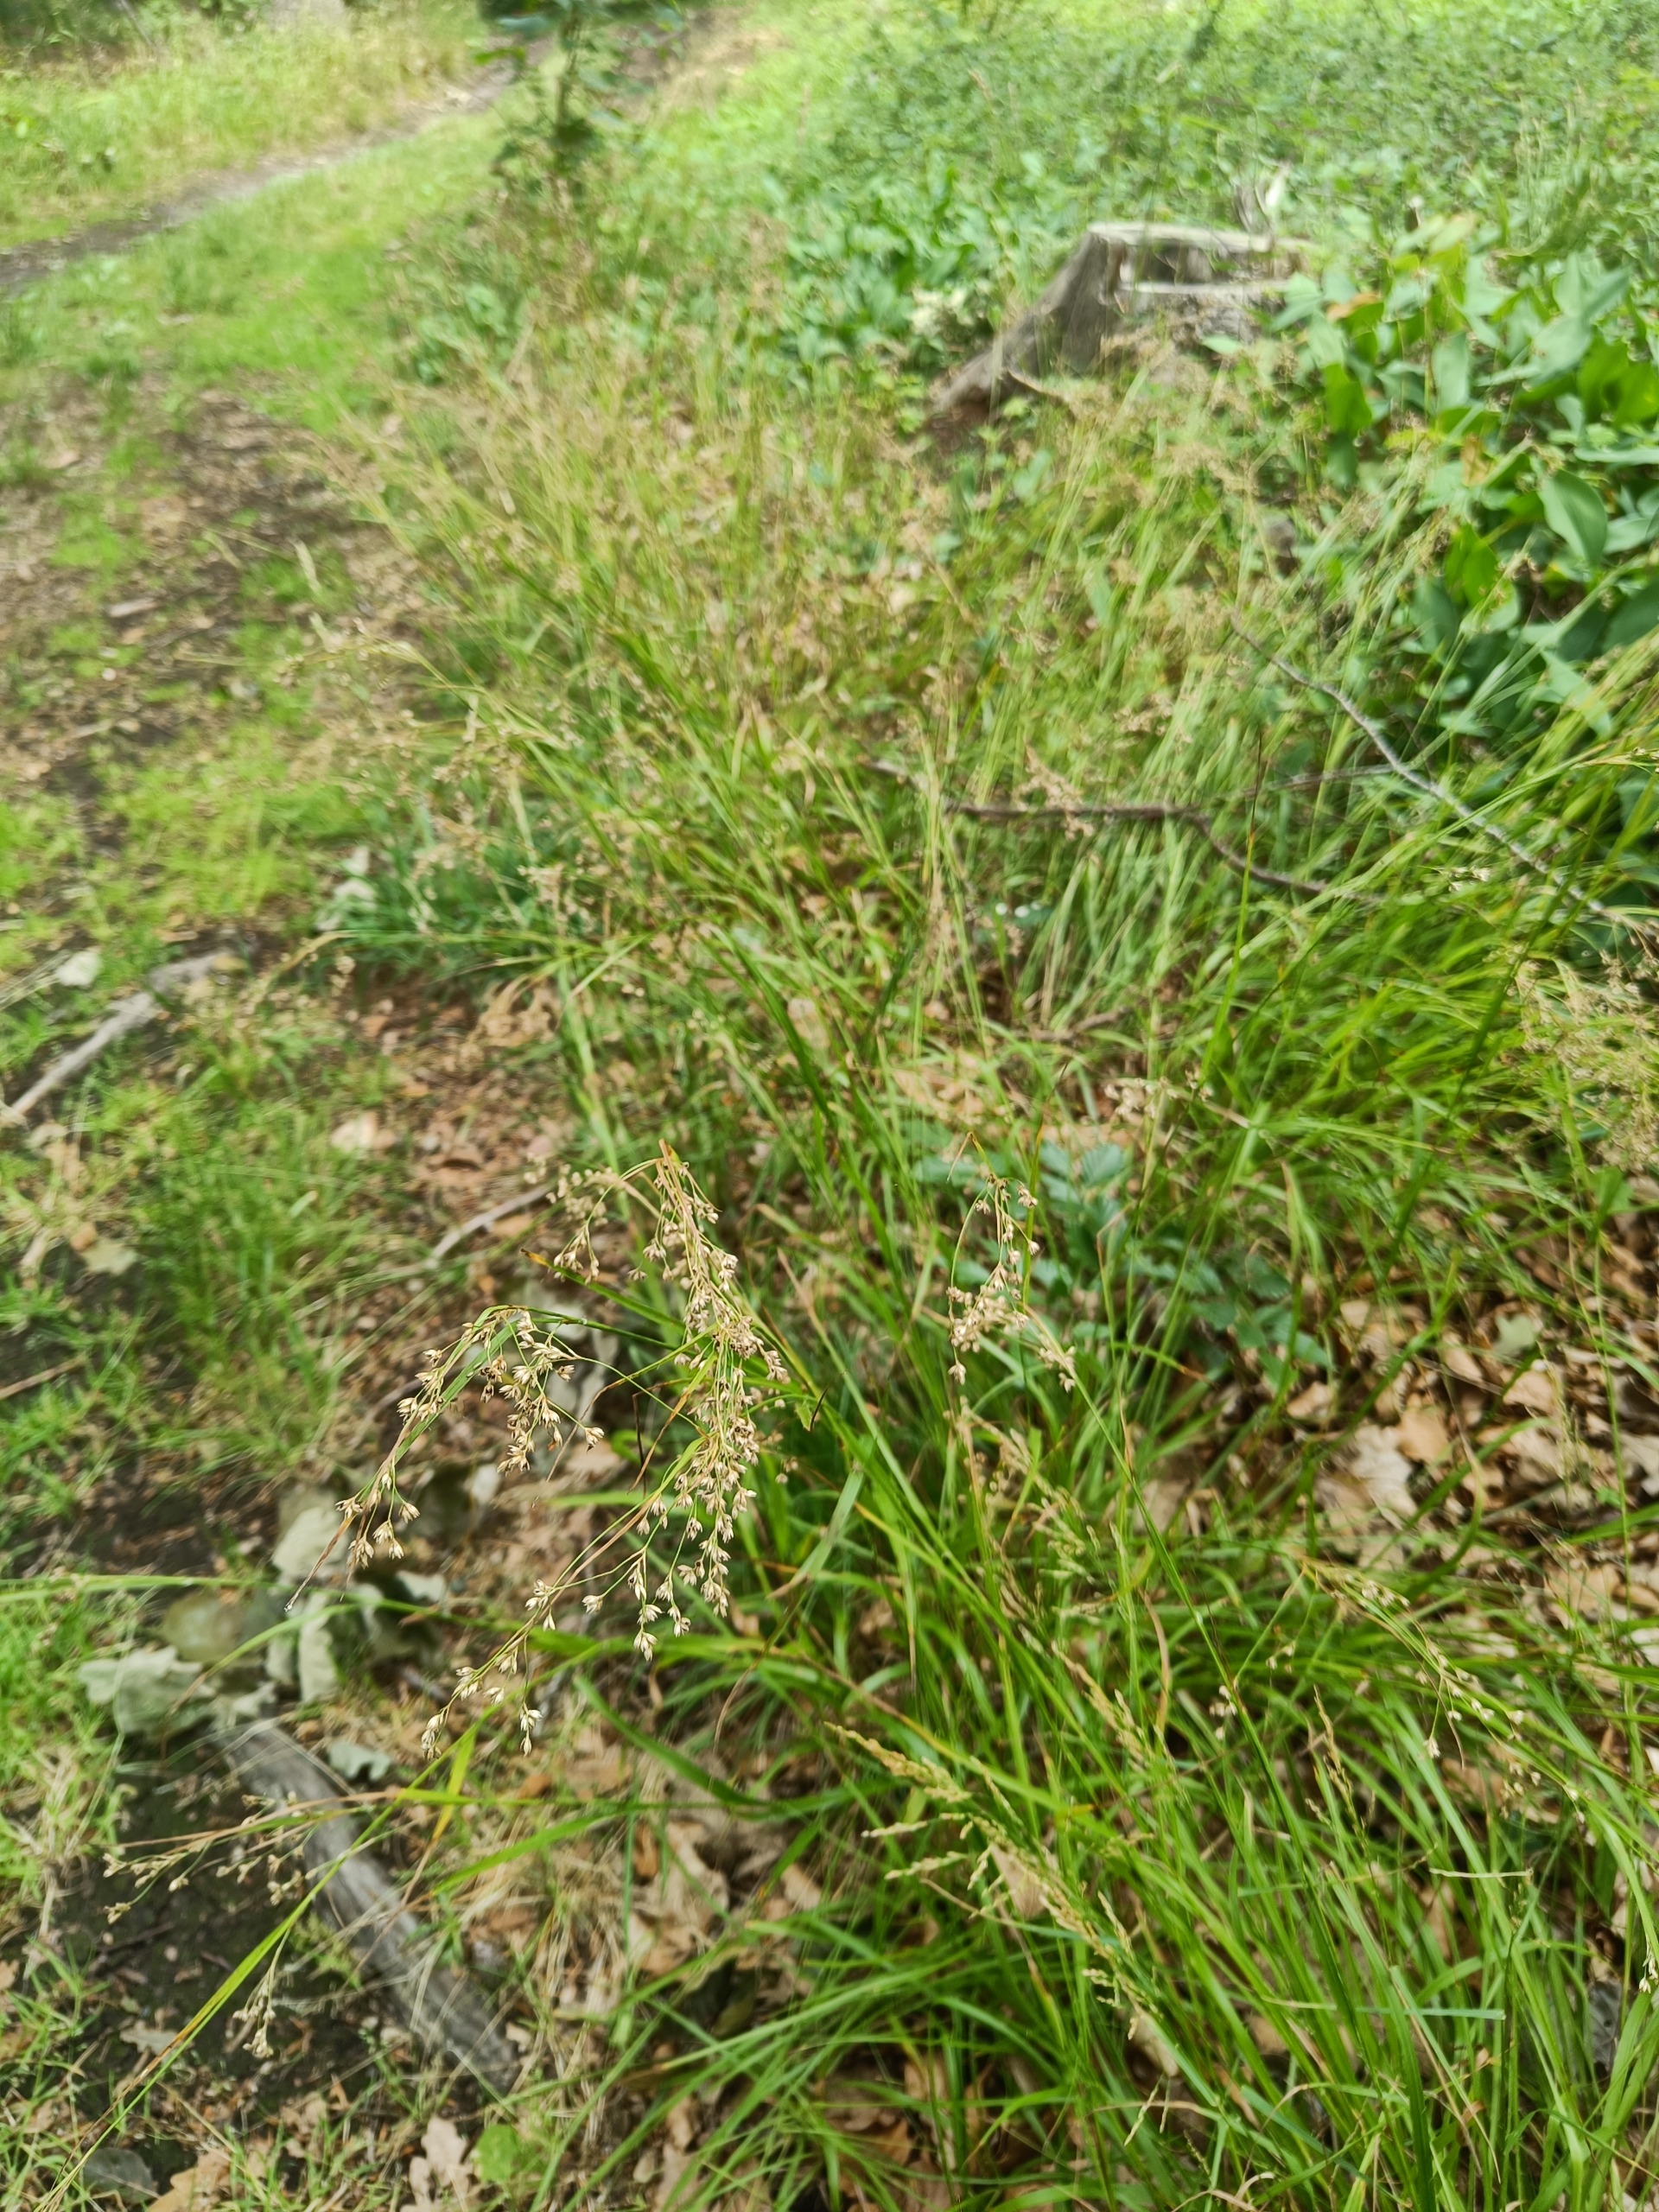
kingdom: Plantae
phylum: Tracheophyta
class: Liliopsida
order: Poales
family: Juncaceae
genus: Luzula
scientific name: Luzula luzuloides
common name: Bleg frytle
